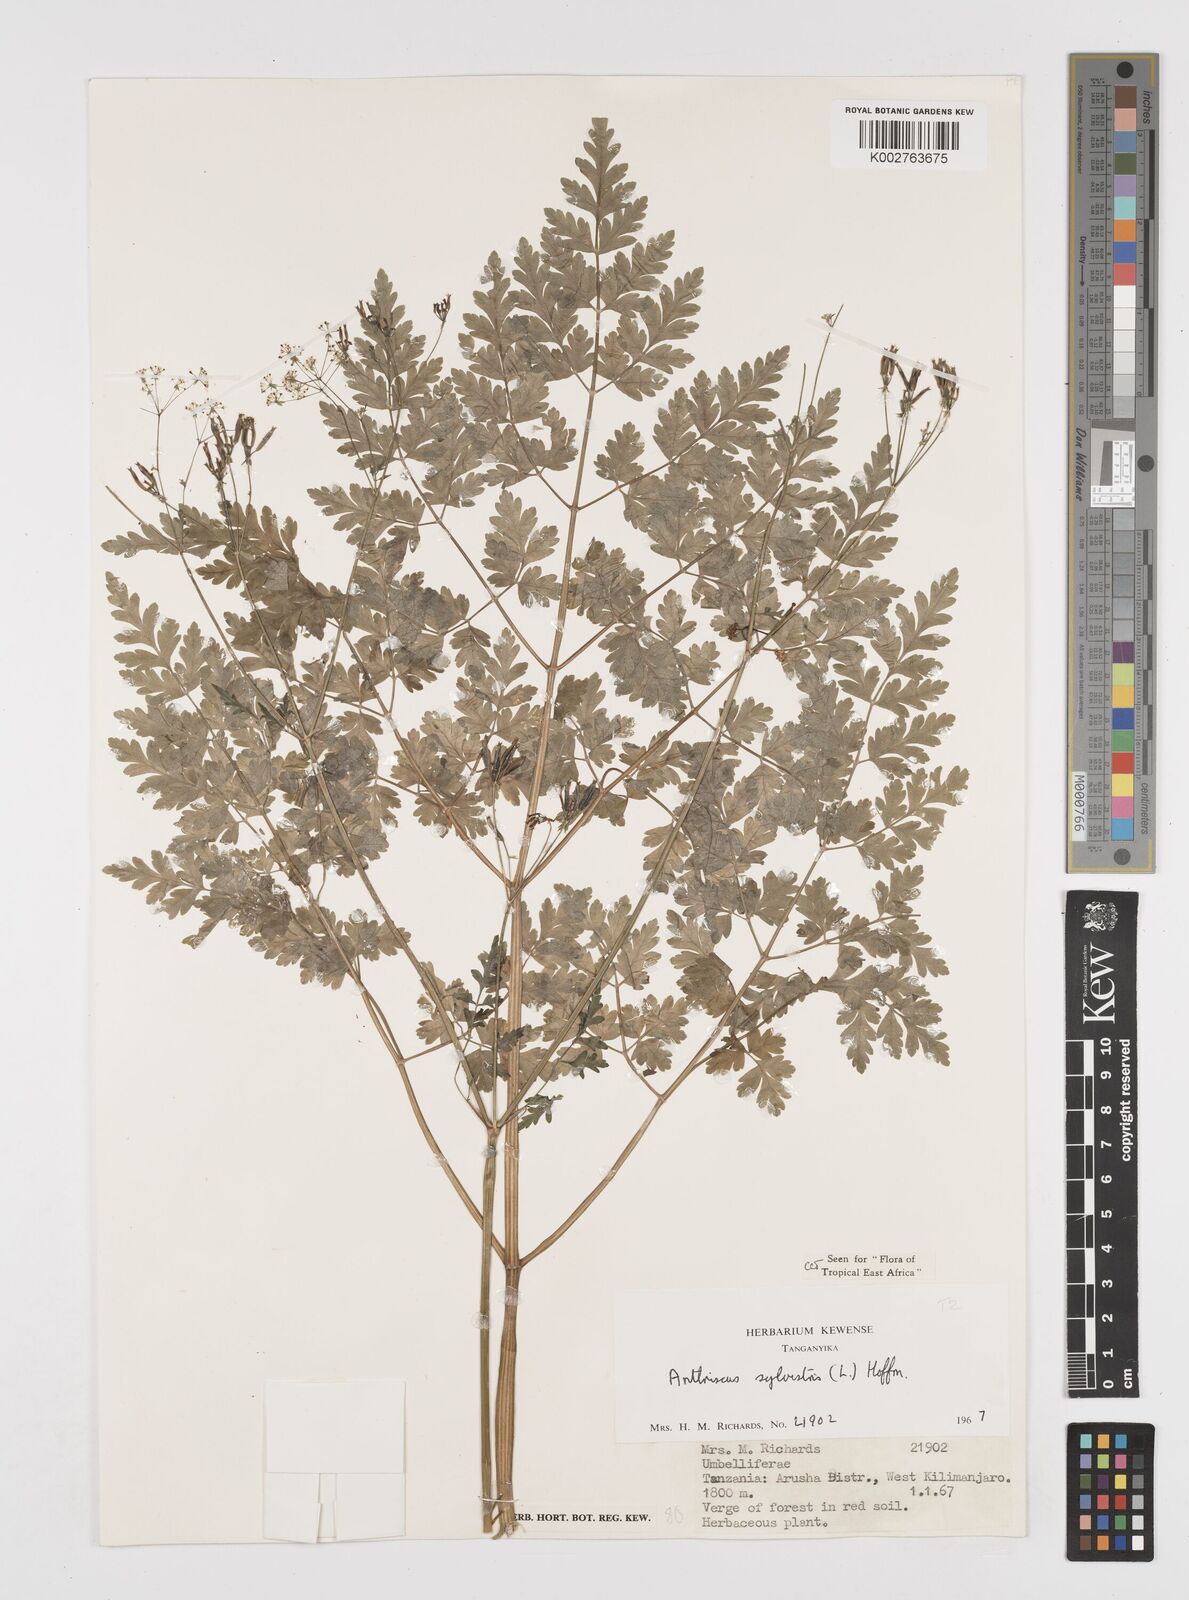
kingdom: Plantae
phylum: Tracheophyta
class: Magnoliopsida
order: Apiales
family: Apiaceae
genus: Anthriscus
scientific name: Anthriscus sylvestris
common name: Cow parsley
